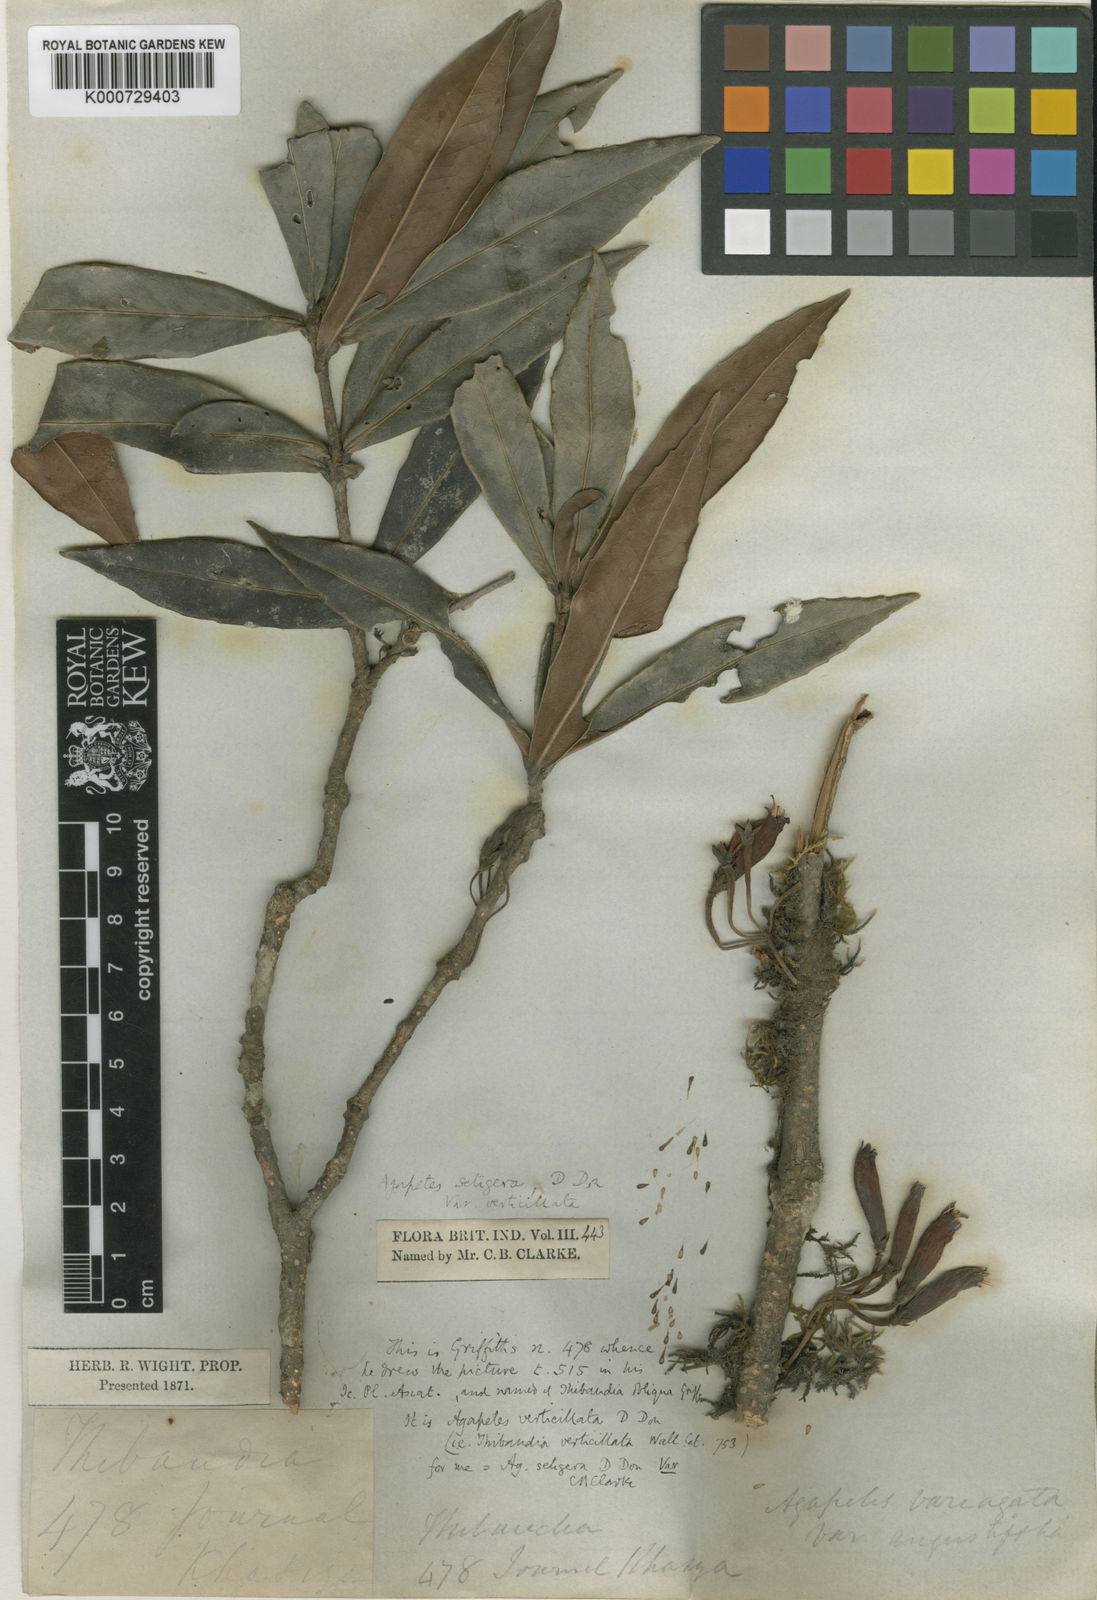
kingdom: Plantae
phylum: Tracheophyta
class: Magnoliopsida
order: Ericales
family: Ericaceae
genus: Agapetes
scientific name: Agapetes setigera
